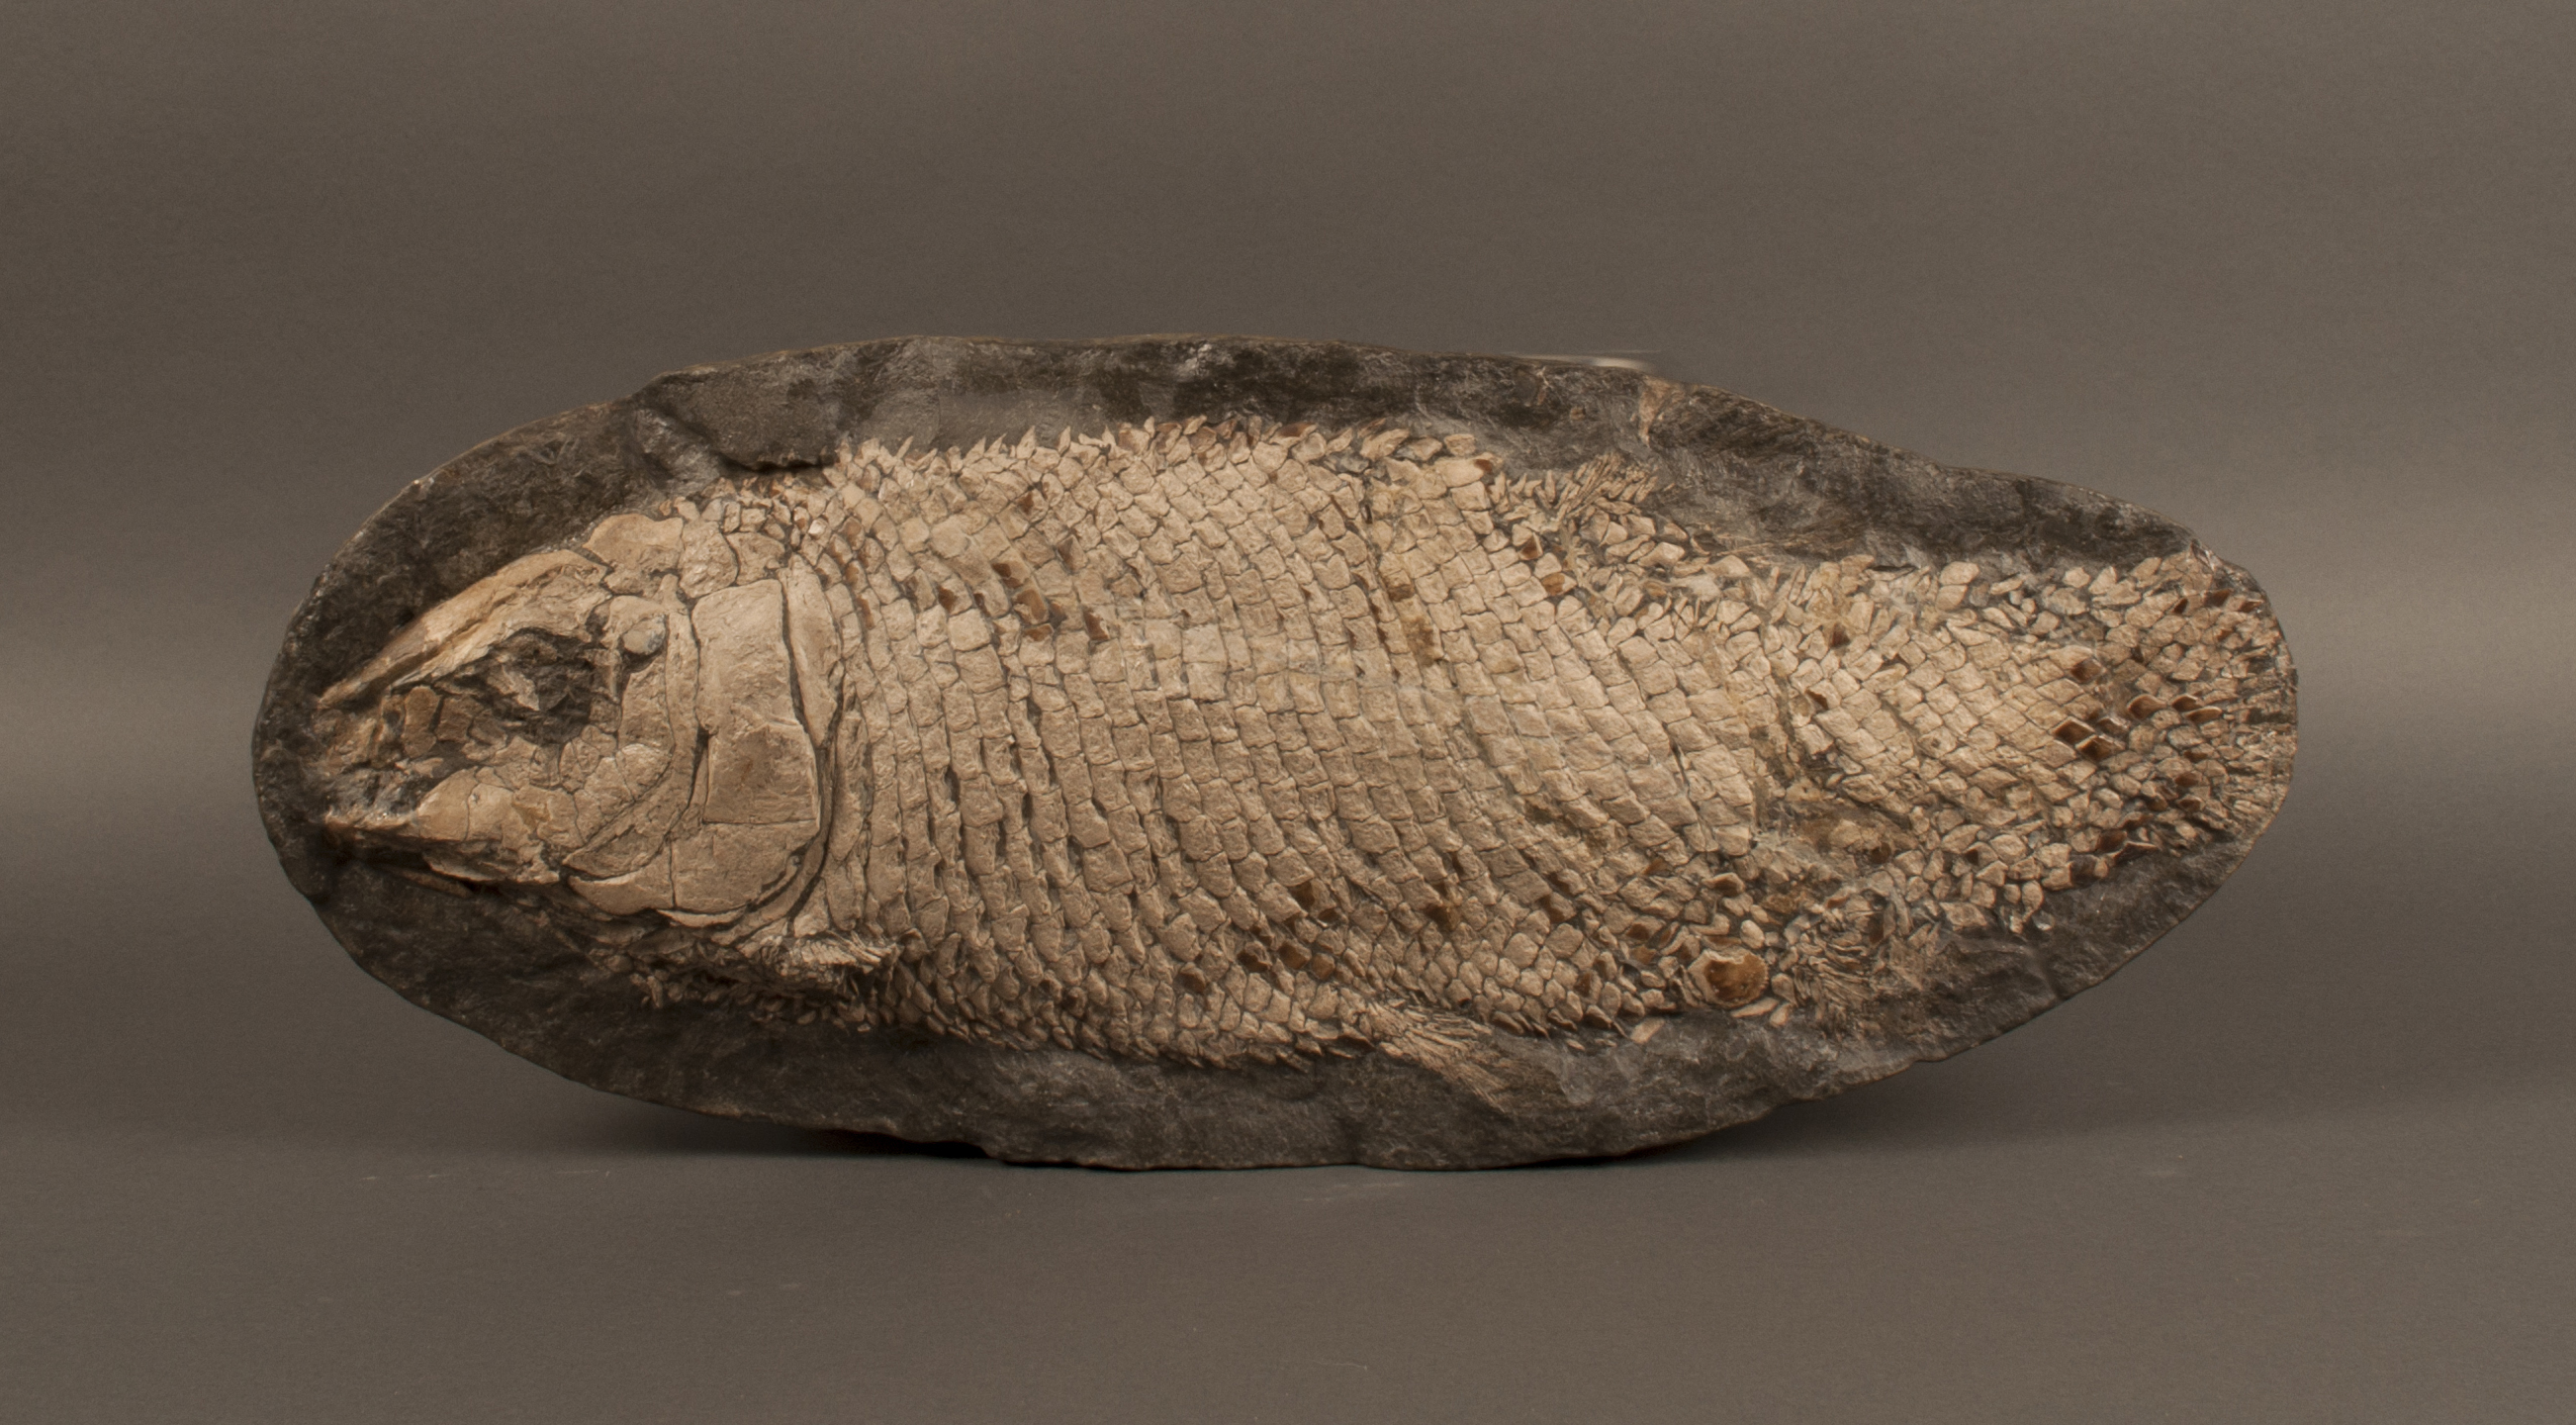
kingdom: Animalia
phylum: Chordata
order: Lepisosteiformes
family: Lepidotidae
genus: Lepidotes
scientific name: Lepidotes elvensis
